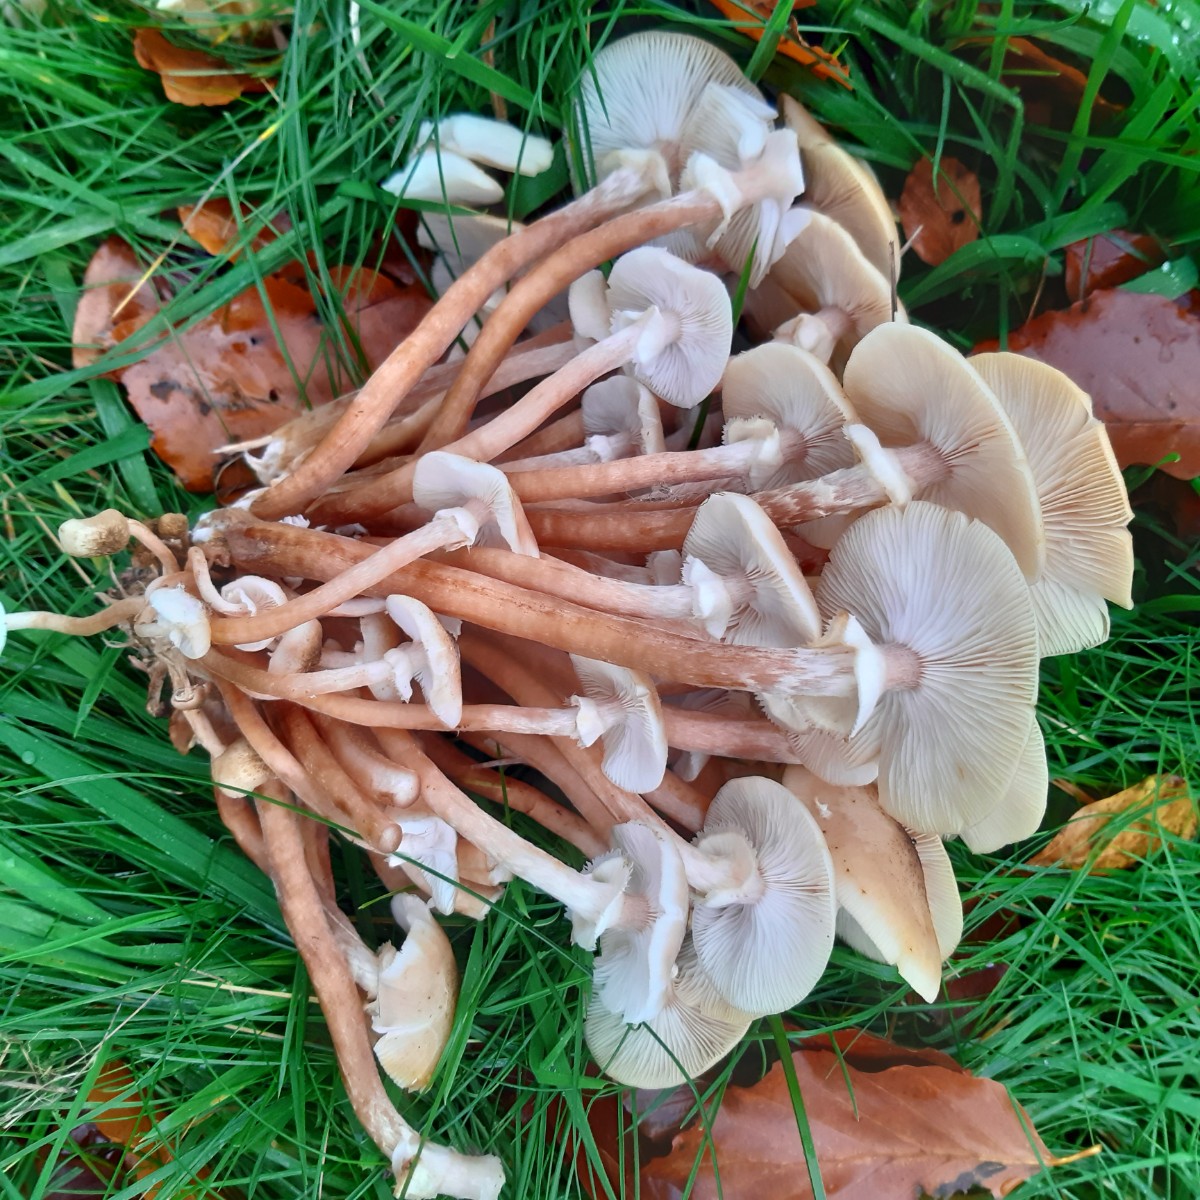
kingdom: Fungi
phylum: Basidiomycota
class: Agaricomycetes
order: Agaricales
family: Physalacriaceae
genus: Armillaria
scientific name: Armillaria mellea
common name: ægte honningsvamp
